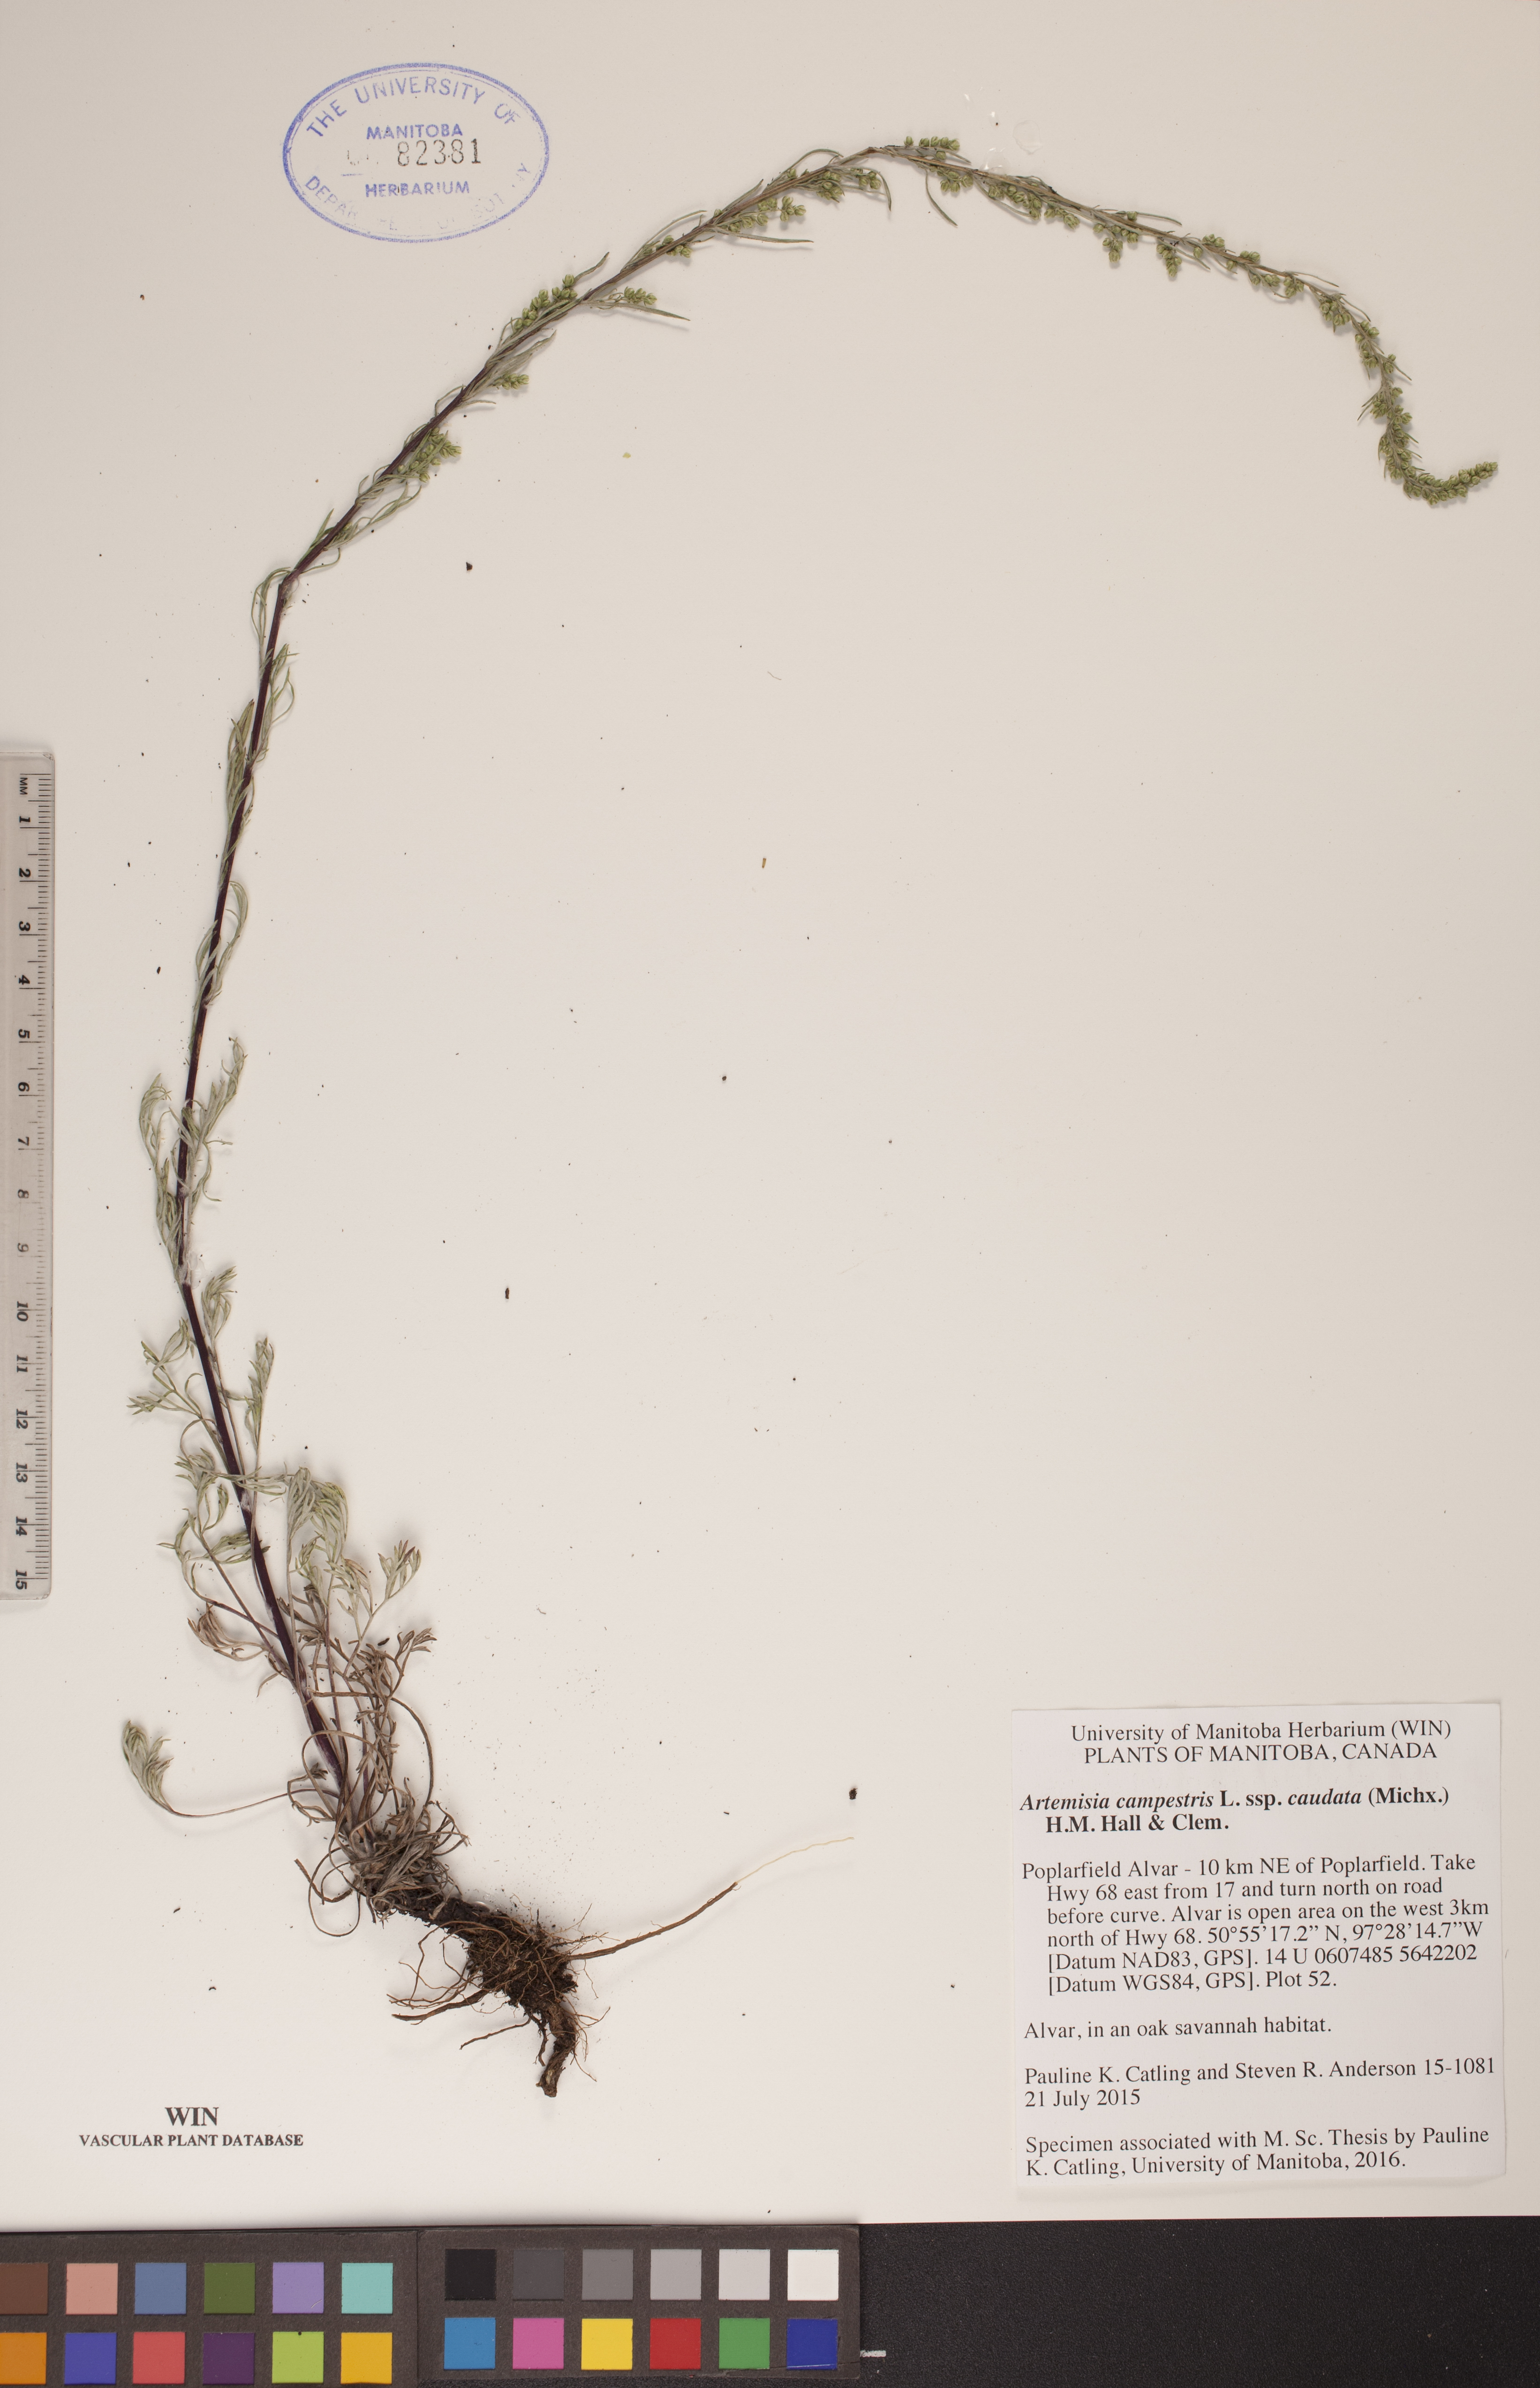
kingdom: Plantae
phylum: Tracheophyta
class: Magnoliopsida
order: Asterales
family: Asteraceae
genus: Artemisia
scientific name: Artemisia campestris
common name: Field wormwood
